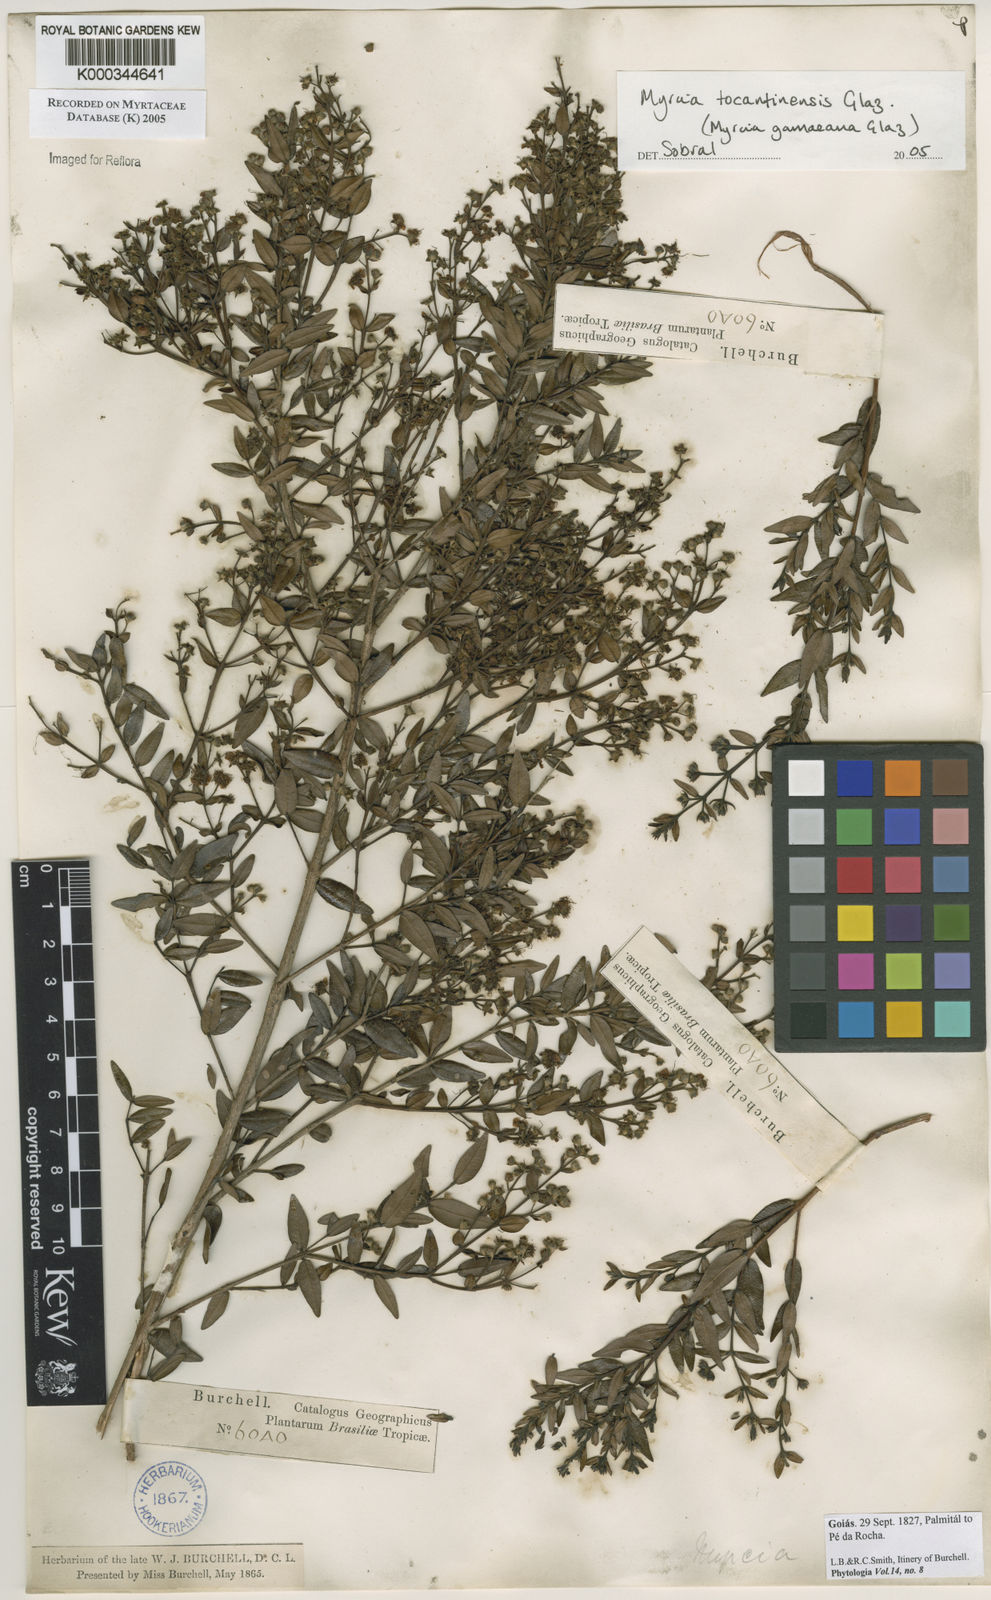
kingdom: Plantae
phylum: Tracheophyta
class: Magnoliopsida
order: Myrtales
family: Myrtaceae
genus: Myrcia
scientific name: Myrcia
